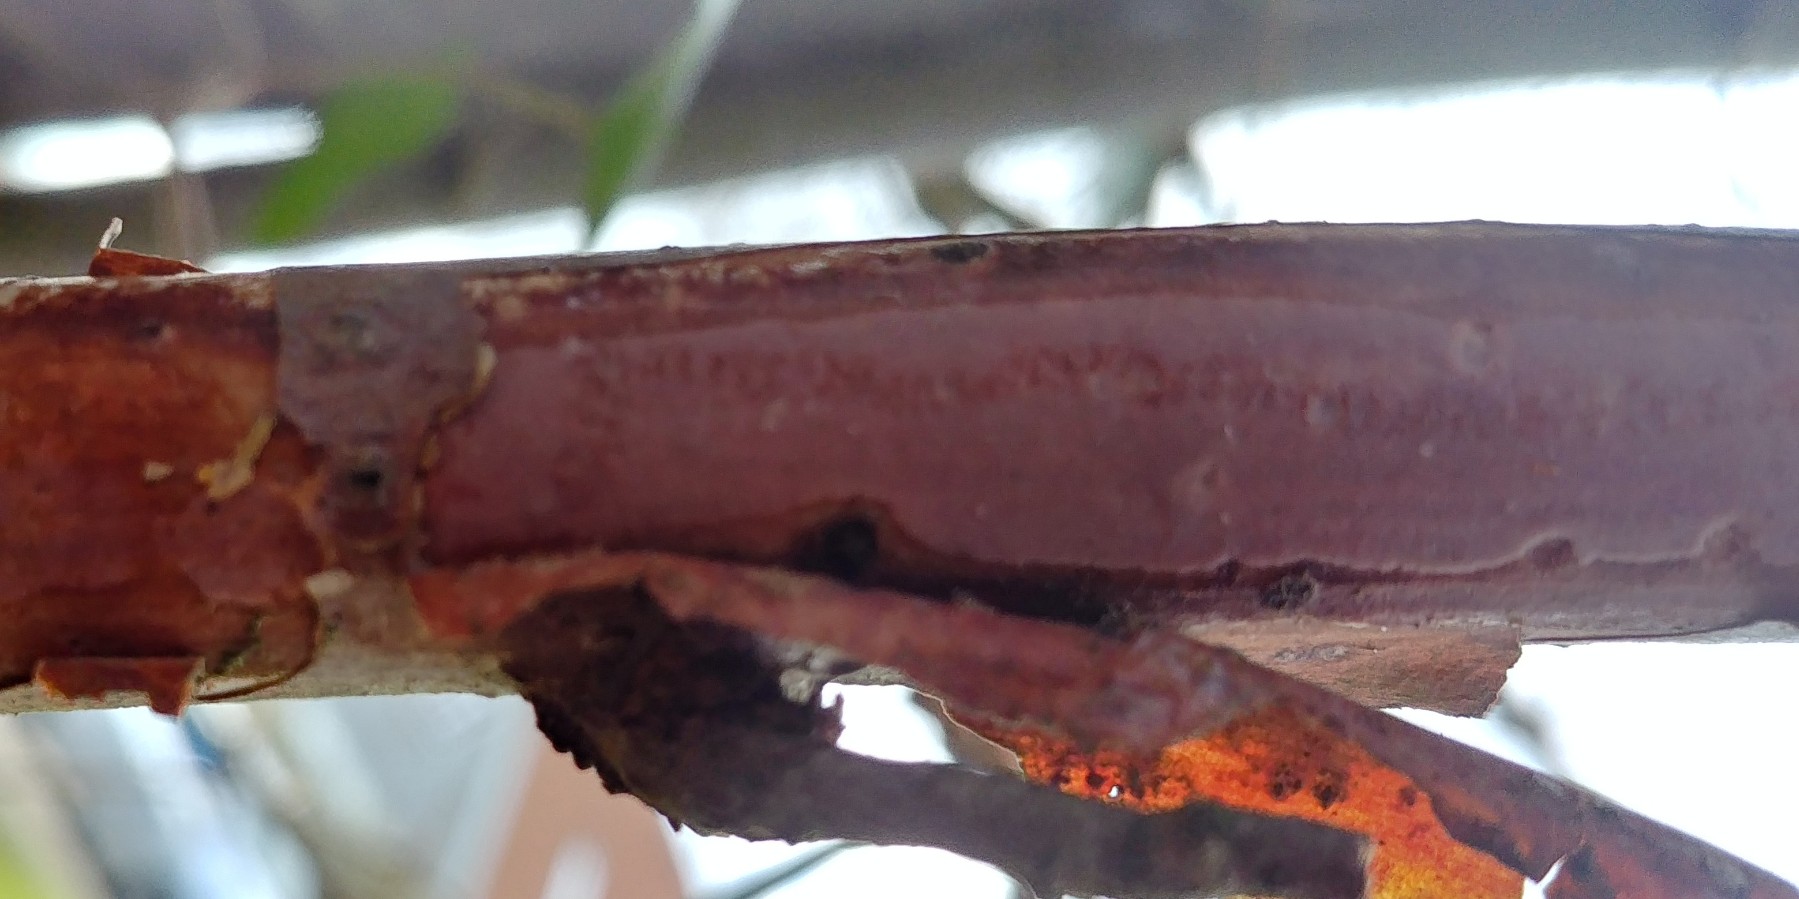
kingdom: Fungi
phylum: Basidiomycota
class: Agaricomycetes
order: Corticiales
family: Vuilleminiaceae
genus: Vuilleminia
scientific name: Vuilleminia coryli
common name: hassel-barksprænger
